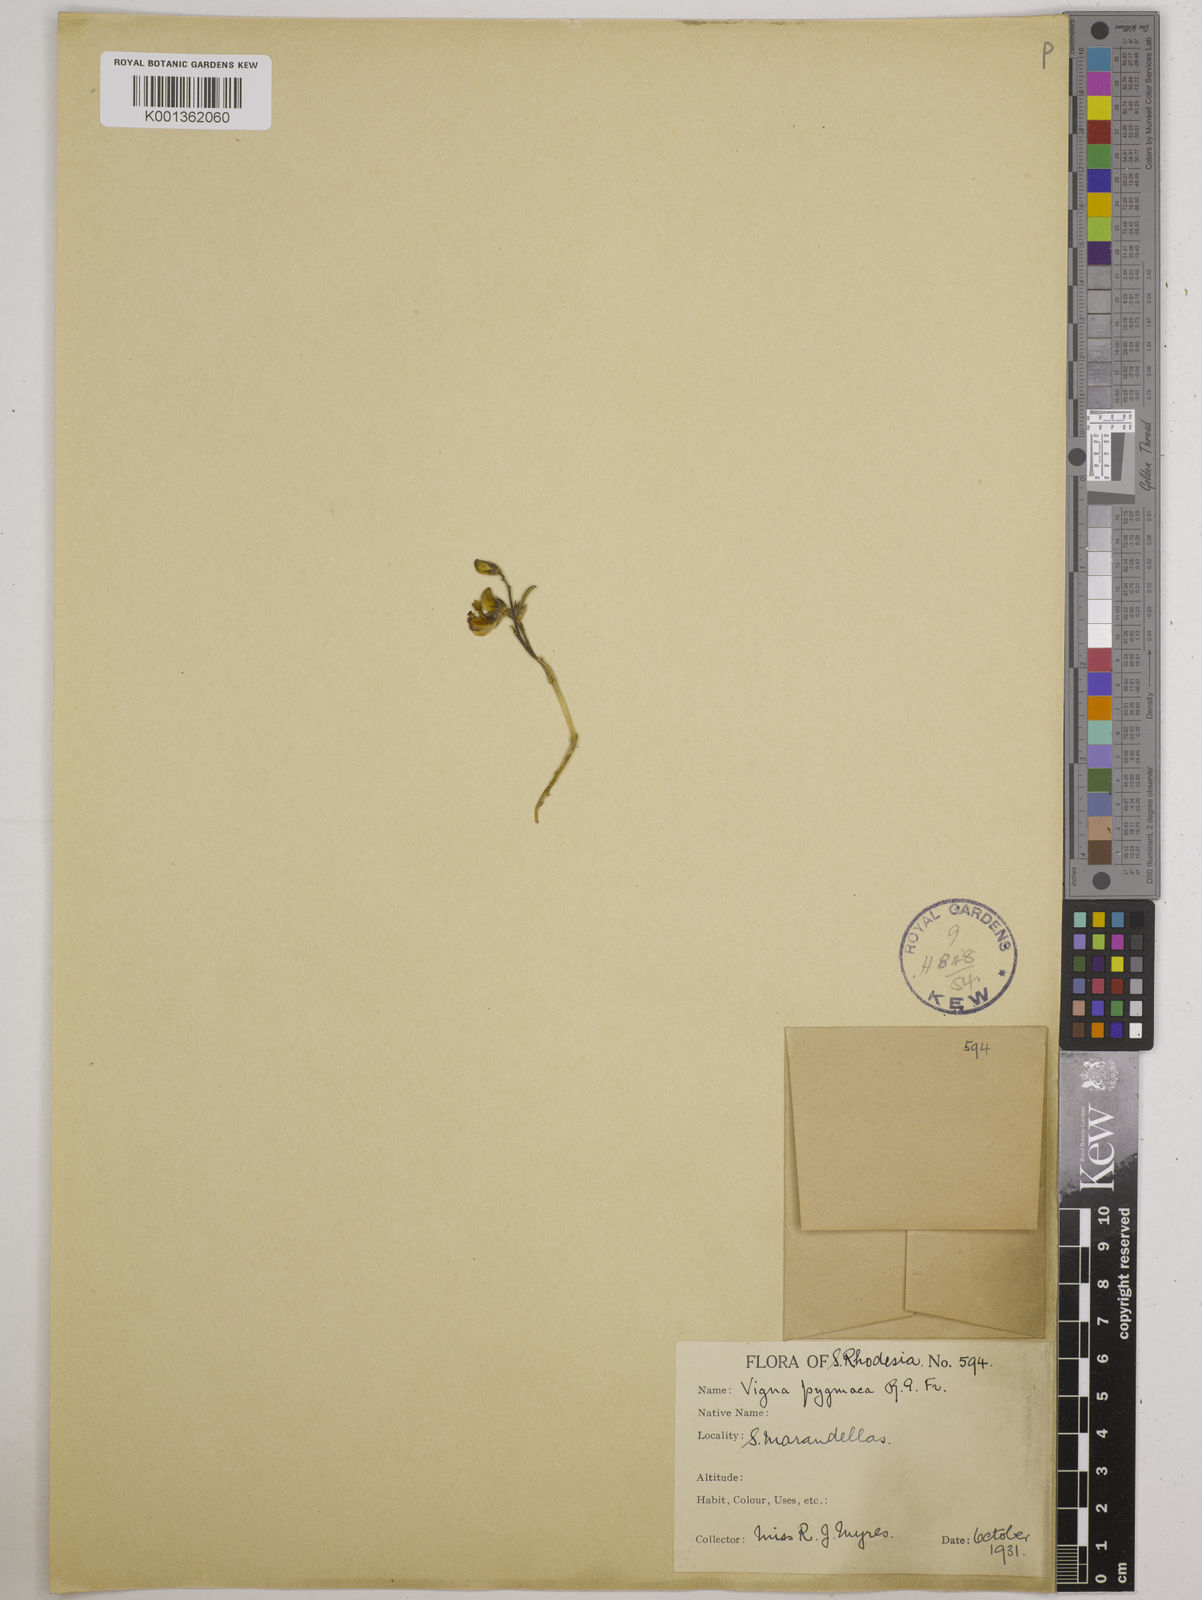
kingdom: Plantae
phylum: Tracheophyta
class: Magnoliopsida
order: Fabales
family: Fabaceae
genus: Vigna
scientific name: Vigna pygmaea
